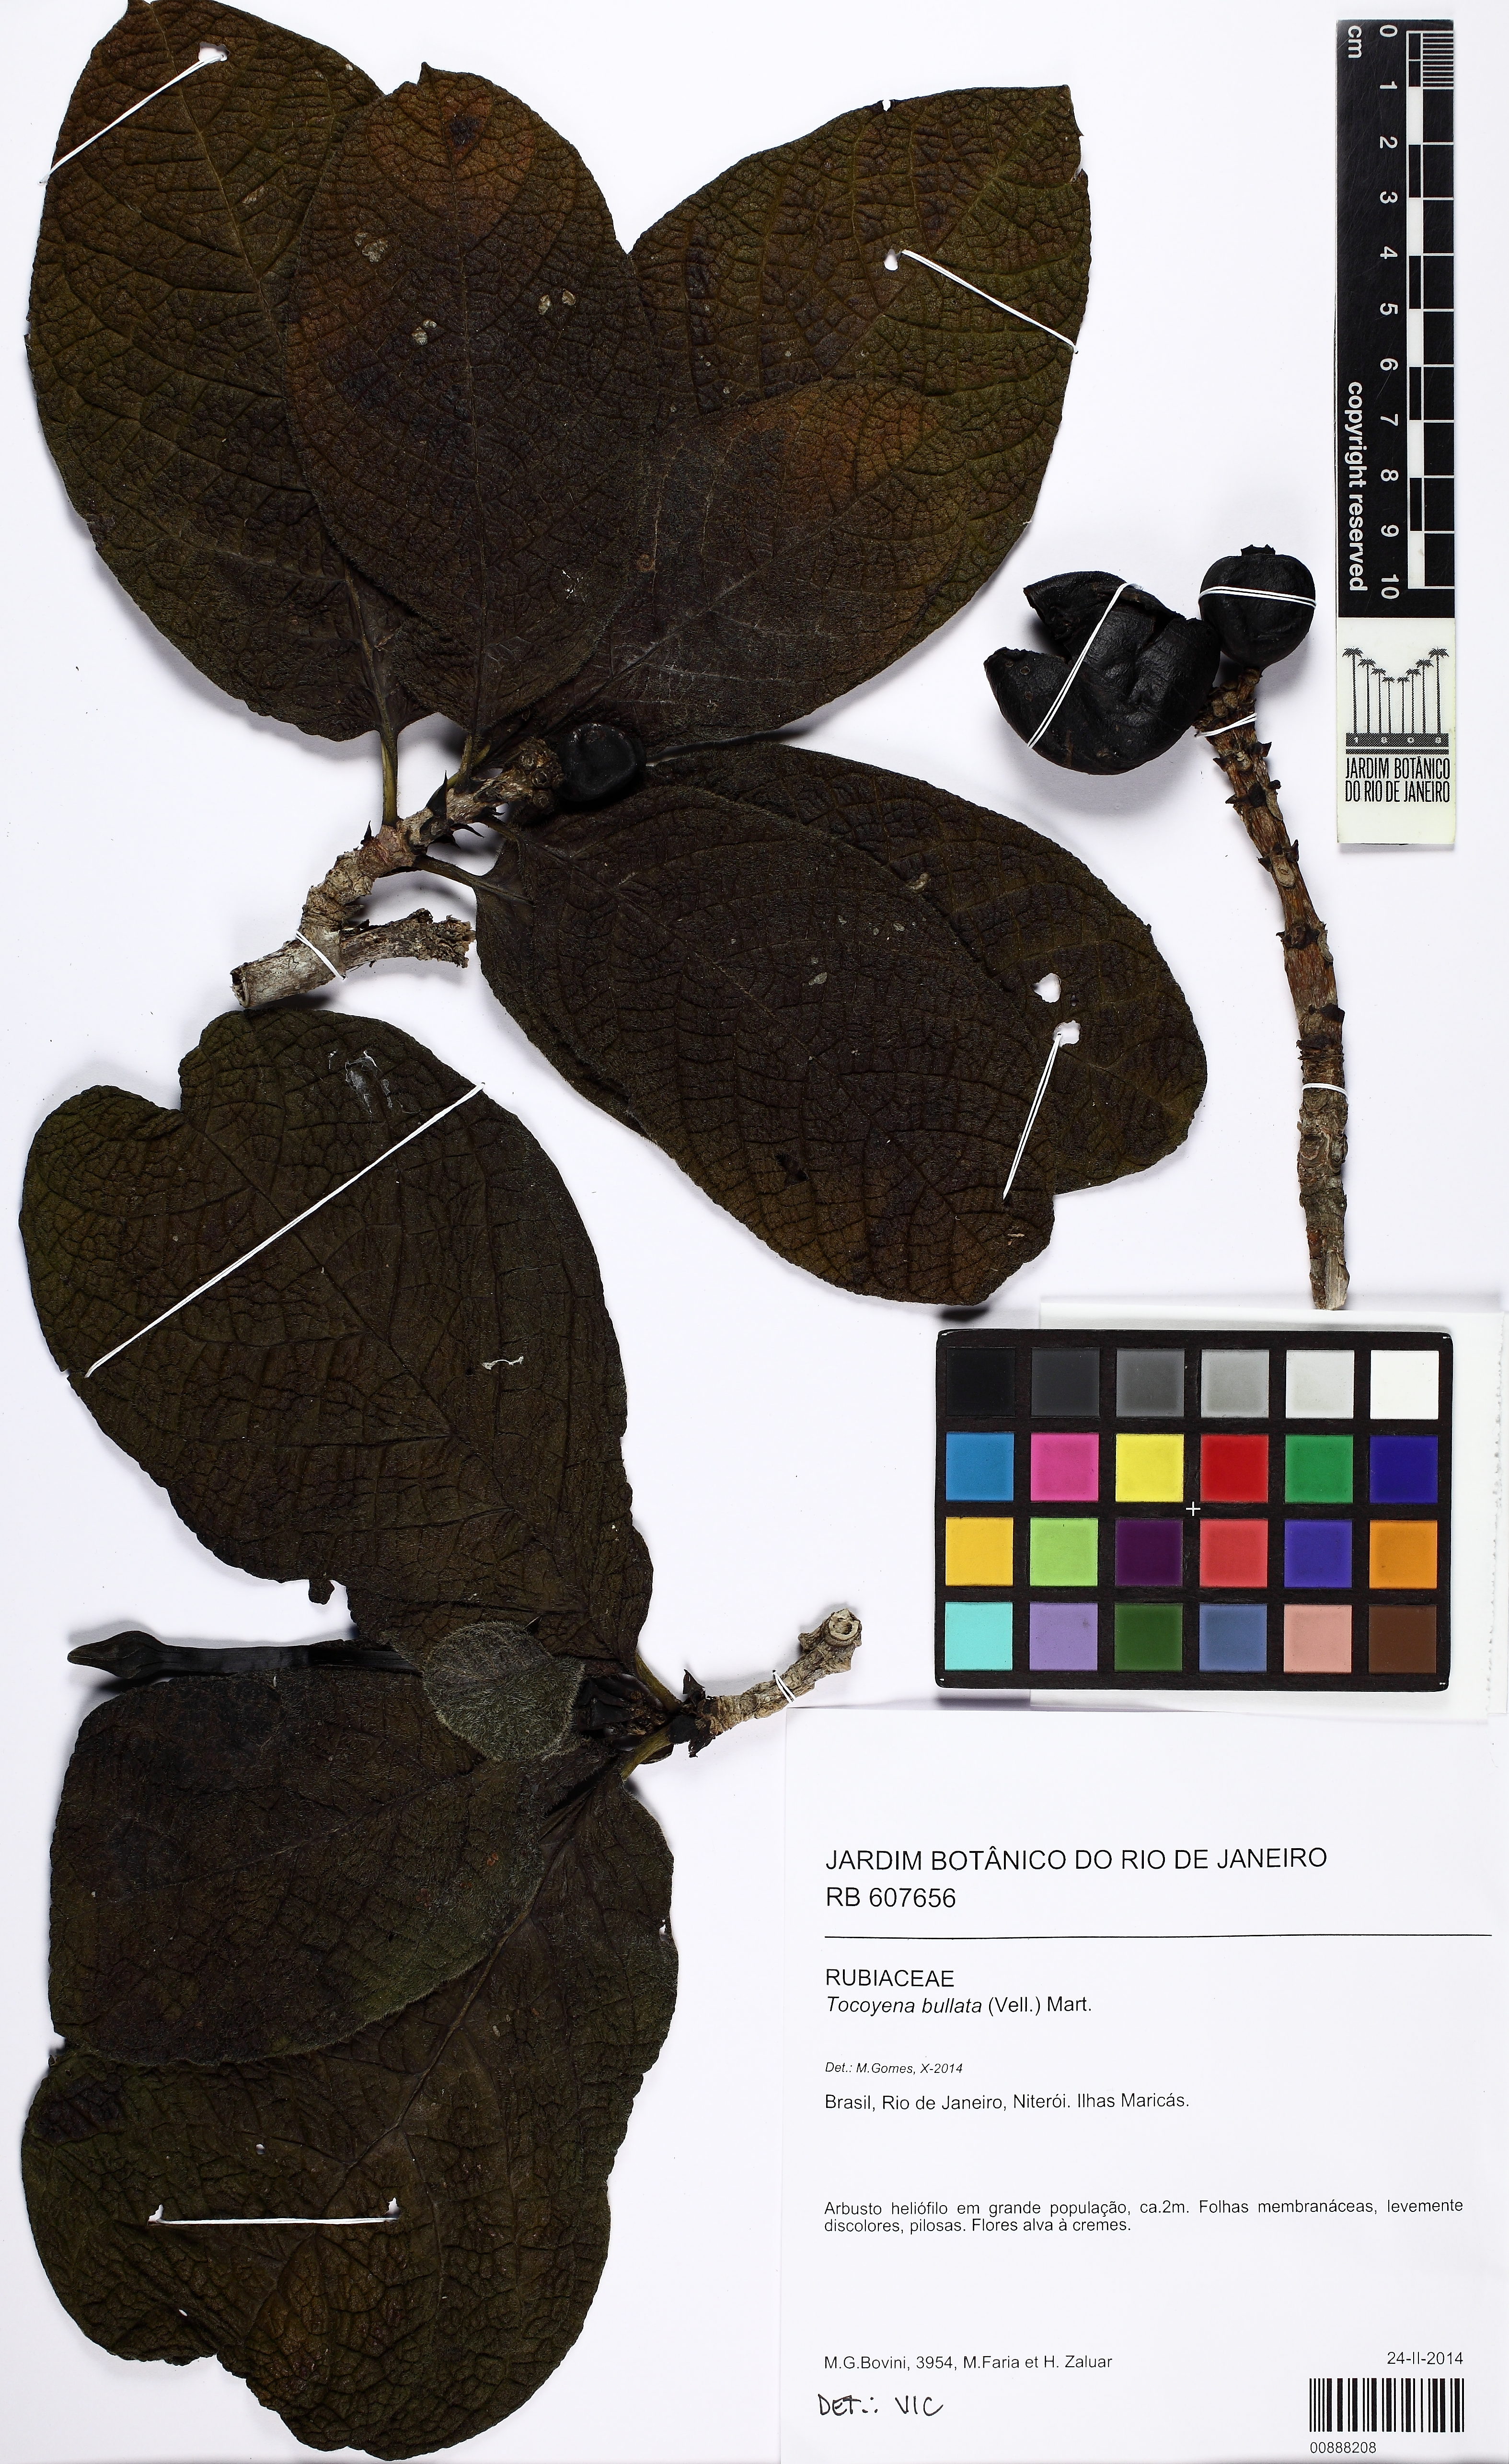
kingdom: Plantae
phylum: Tracheophyta
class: Magnoliopsida
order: Gentianales
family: Rubiaceae
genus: Tocoyena
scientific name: Tocoyena bullata
